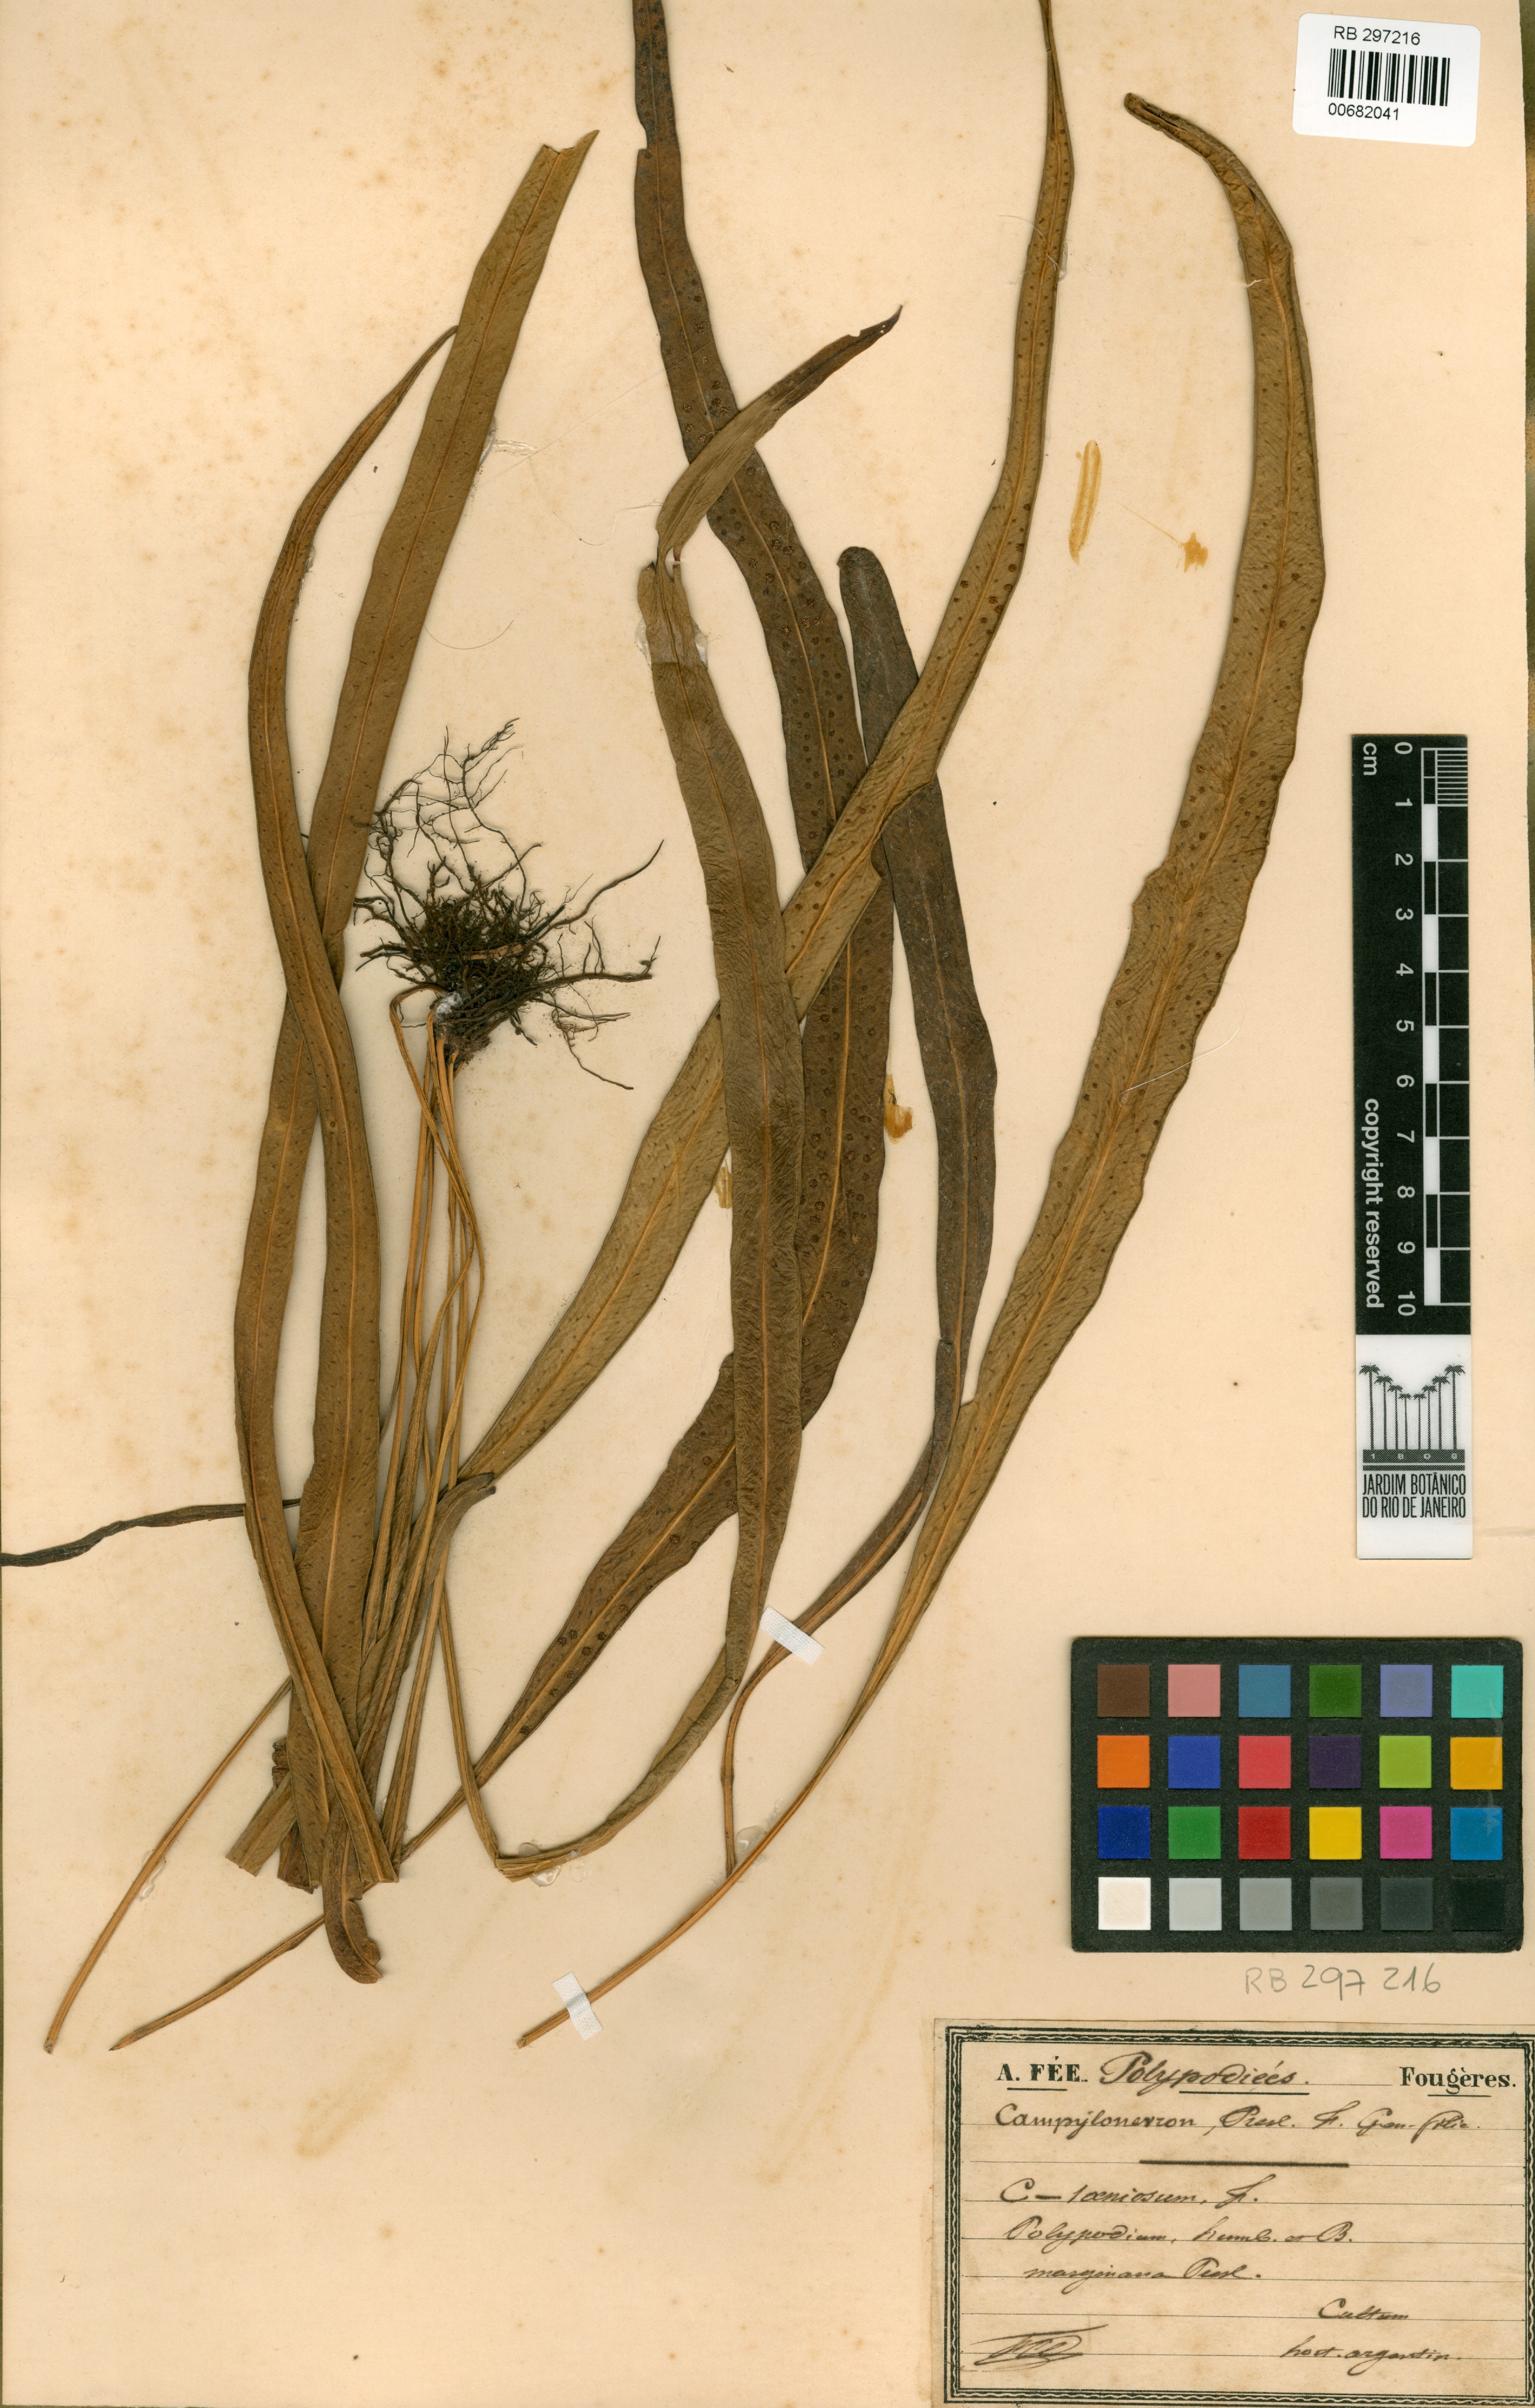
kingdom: Plantae
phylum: Tracheophyta
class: Polypodiopsida
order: Polypodiales
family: Polypodiaceae
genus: Campyloneurum
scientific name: Campyloneurum angustifolium
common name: Narrow-leaf strap fern
